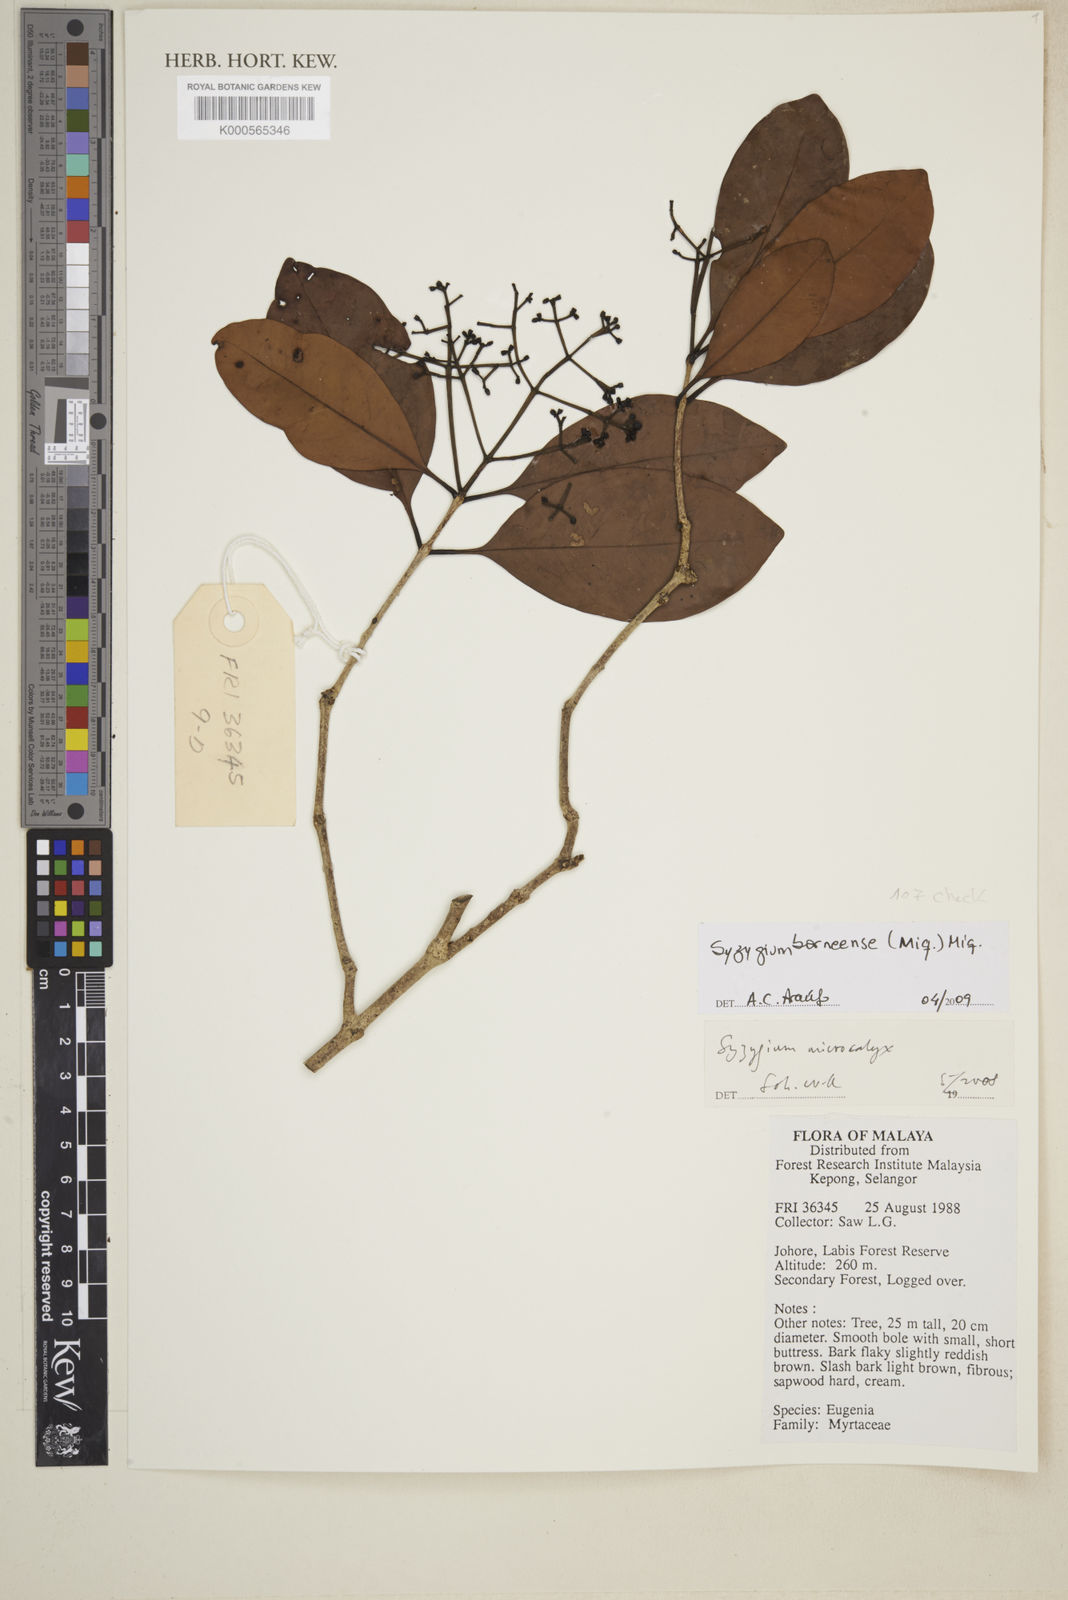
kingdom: Plantae
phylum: Tracheophyta
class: Magnoliopsida
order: Myrtales
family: Myrtaceae
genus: Syzygium
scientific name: Syzygium borneense
